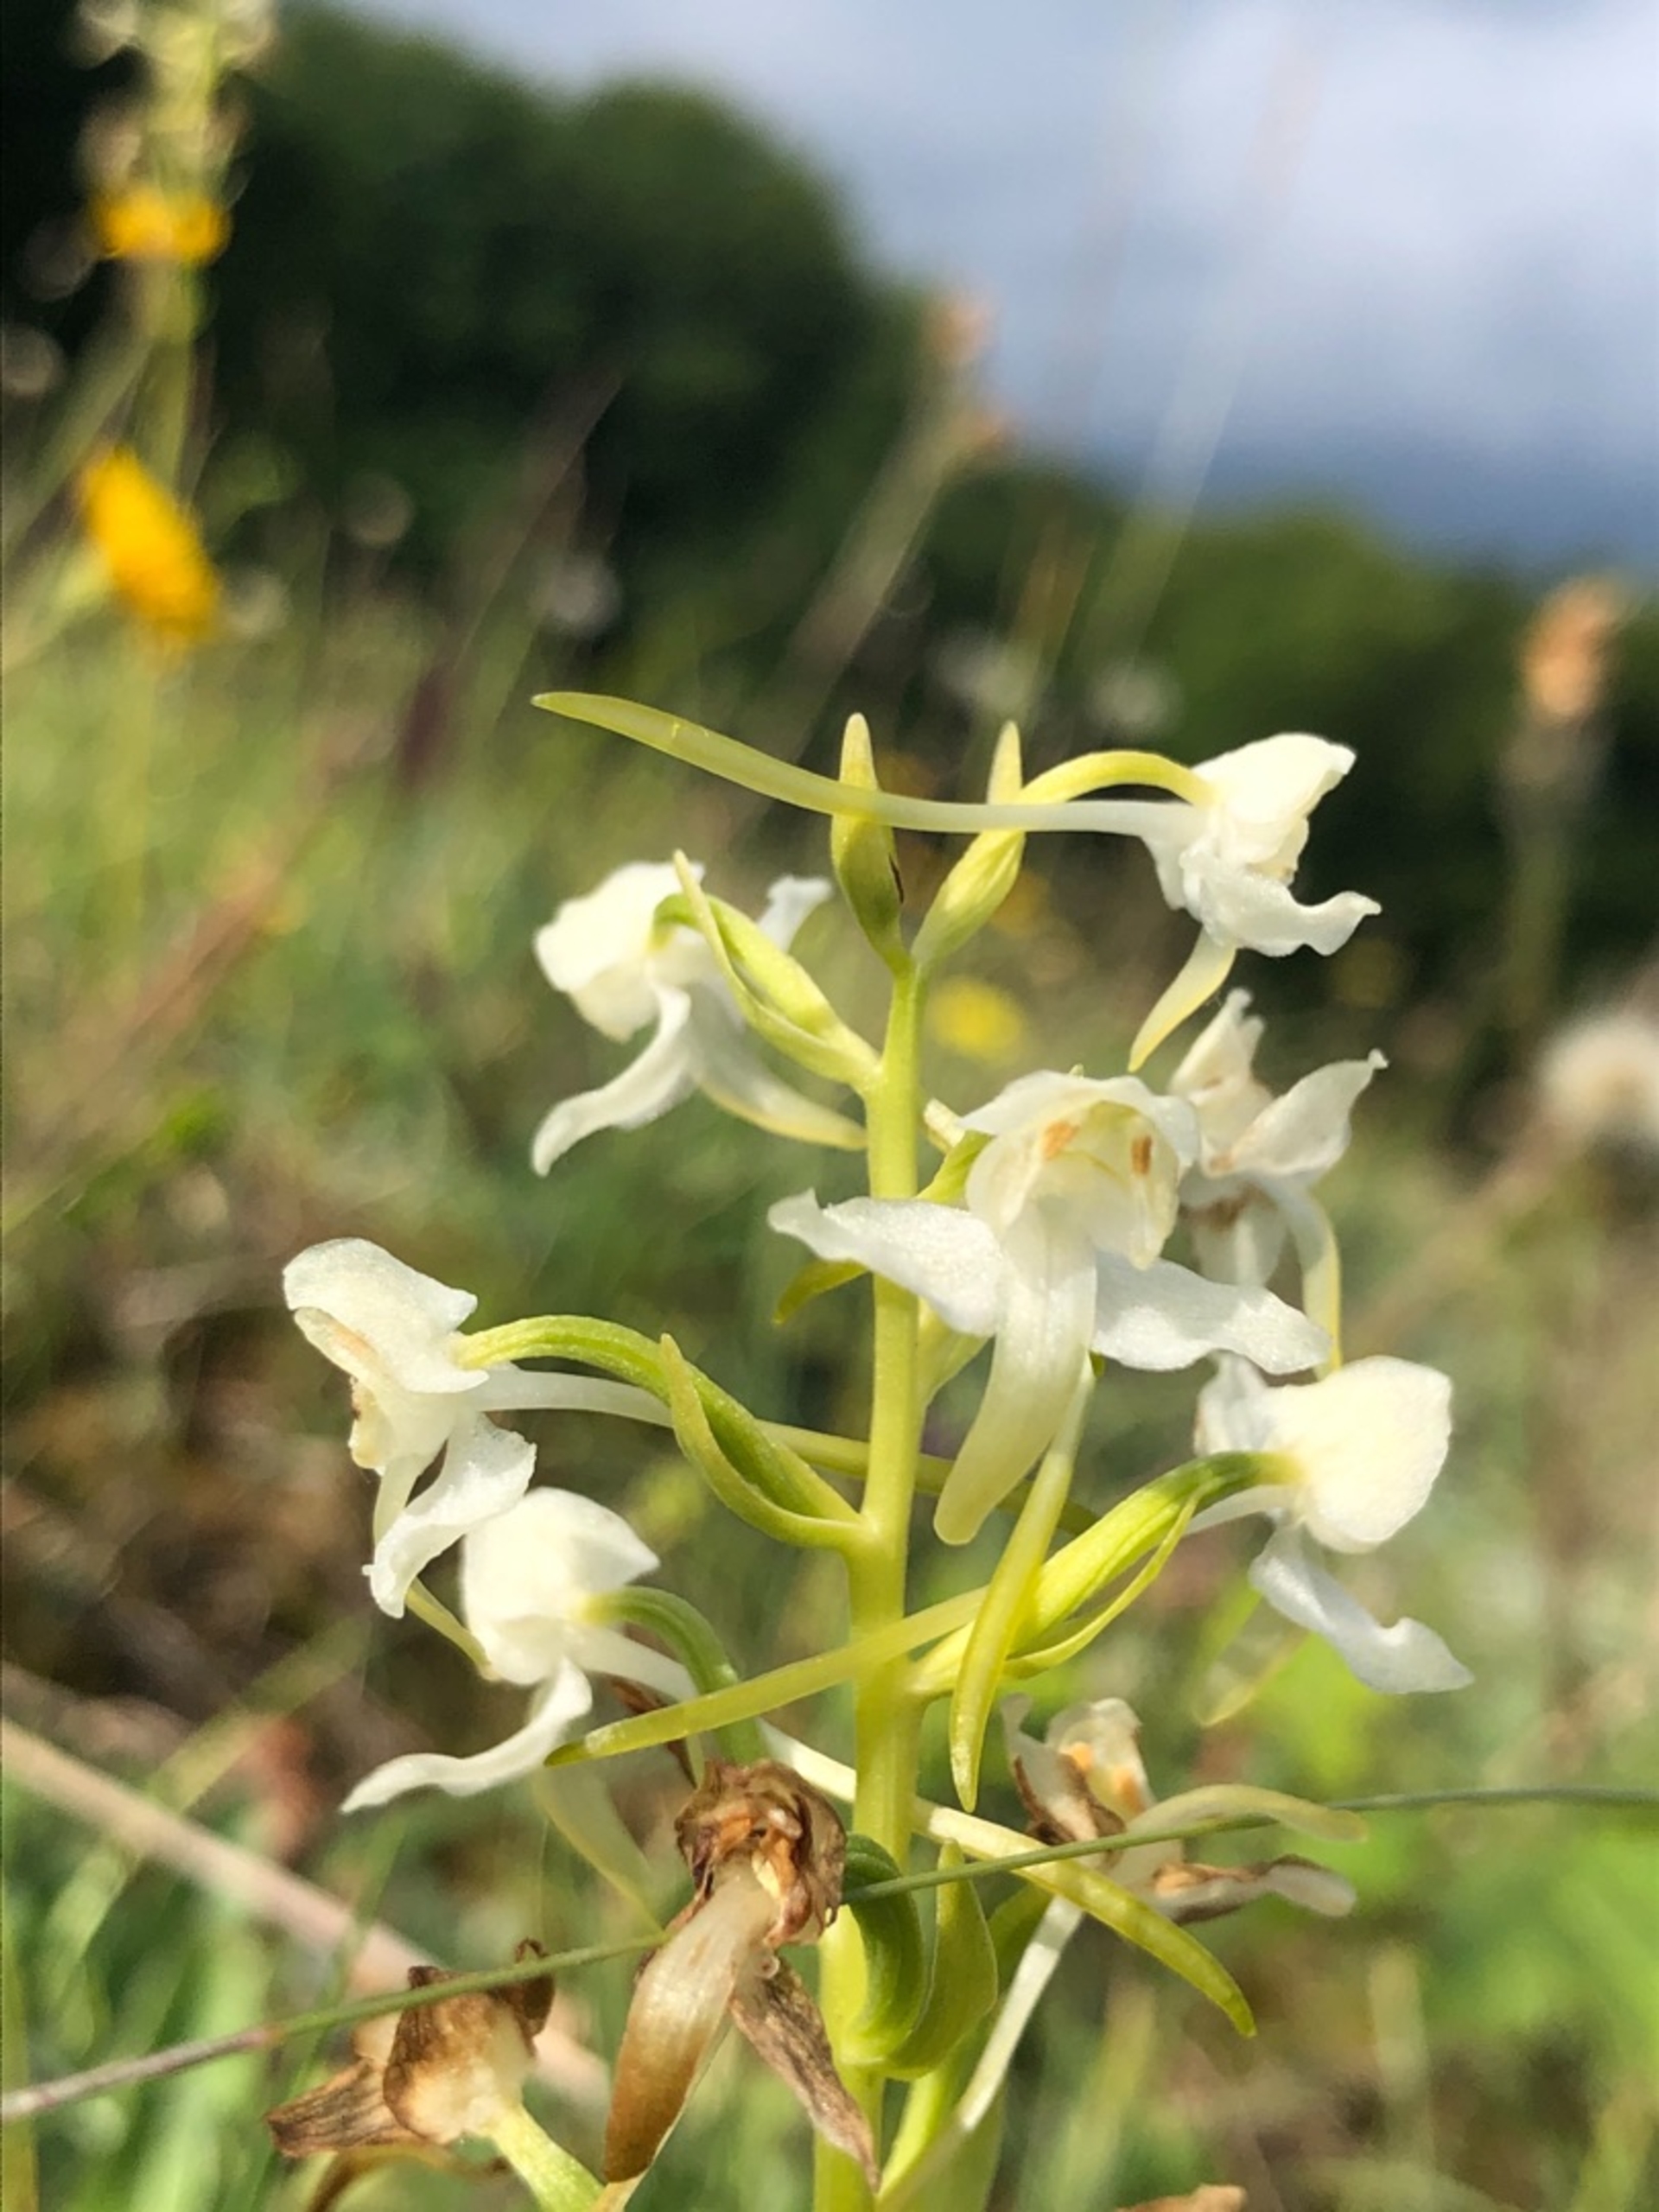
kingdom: Plantae
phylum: Tracheophyta
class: Liliopsida
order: Asparagales
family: Orchidaceae
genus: Platanthera
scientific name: Platanthera chlorantha
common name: Skov-gøgelilje
